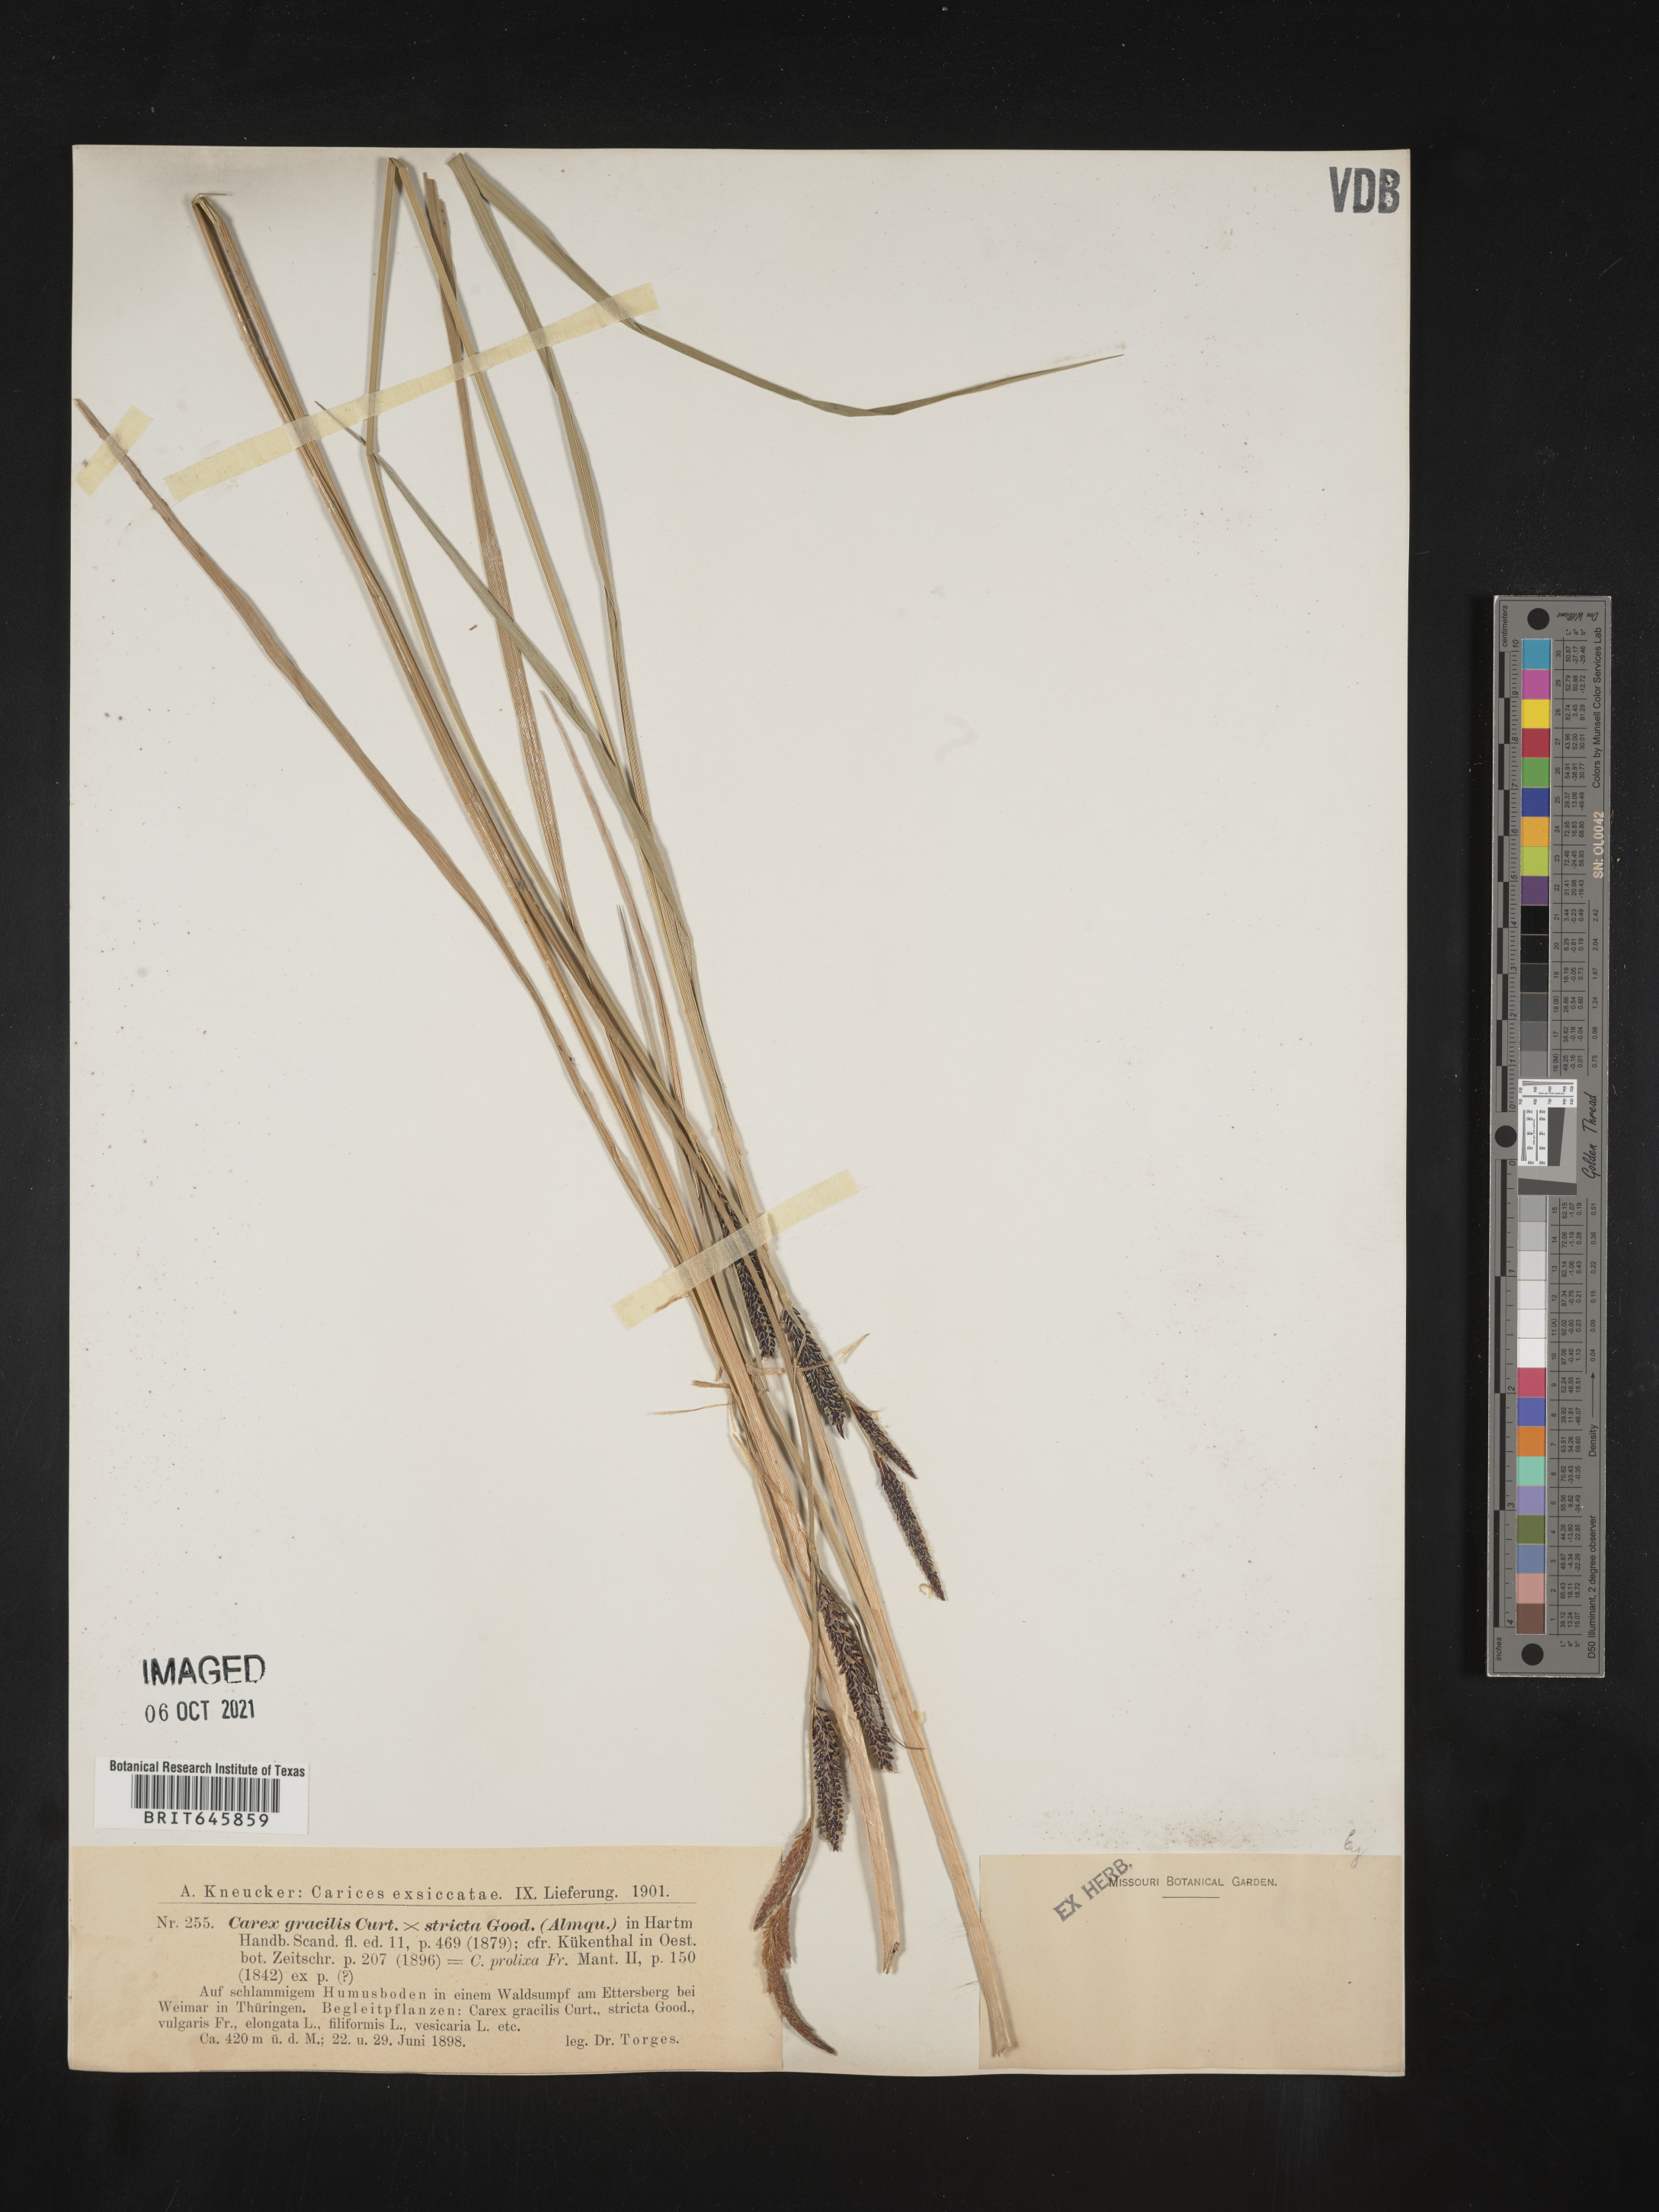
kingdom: Plantae
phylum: Tracheophyta
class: Liliopsida
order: Poales
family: Cyperaceae
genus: Carex
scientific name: Carex
